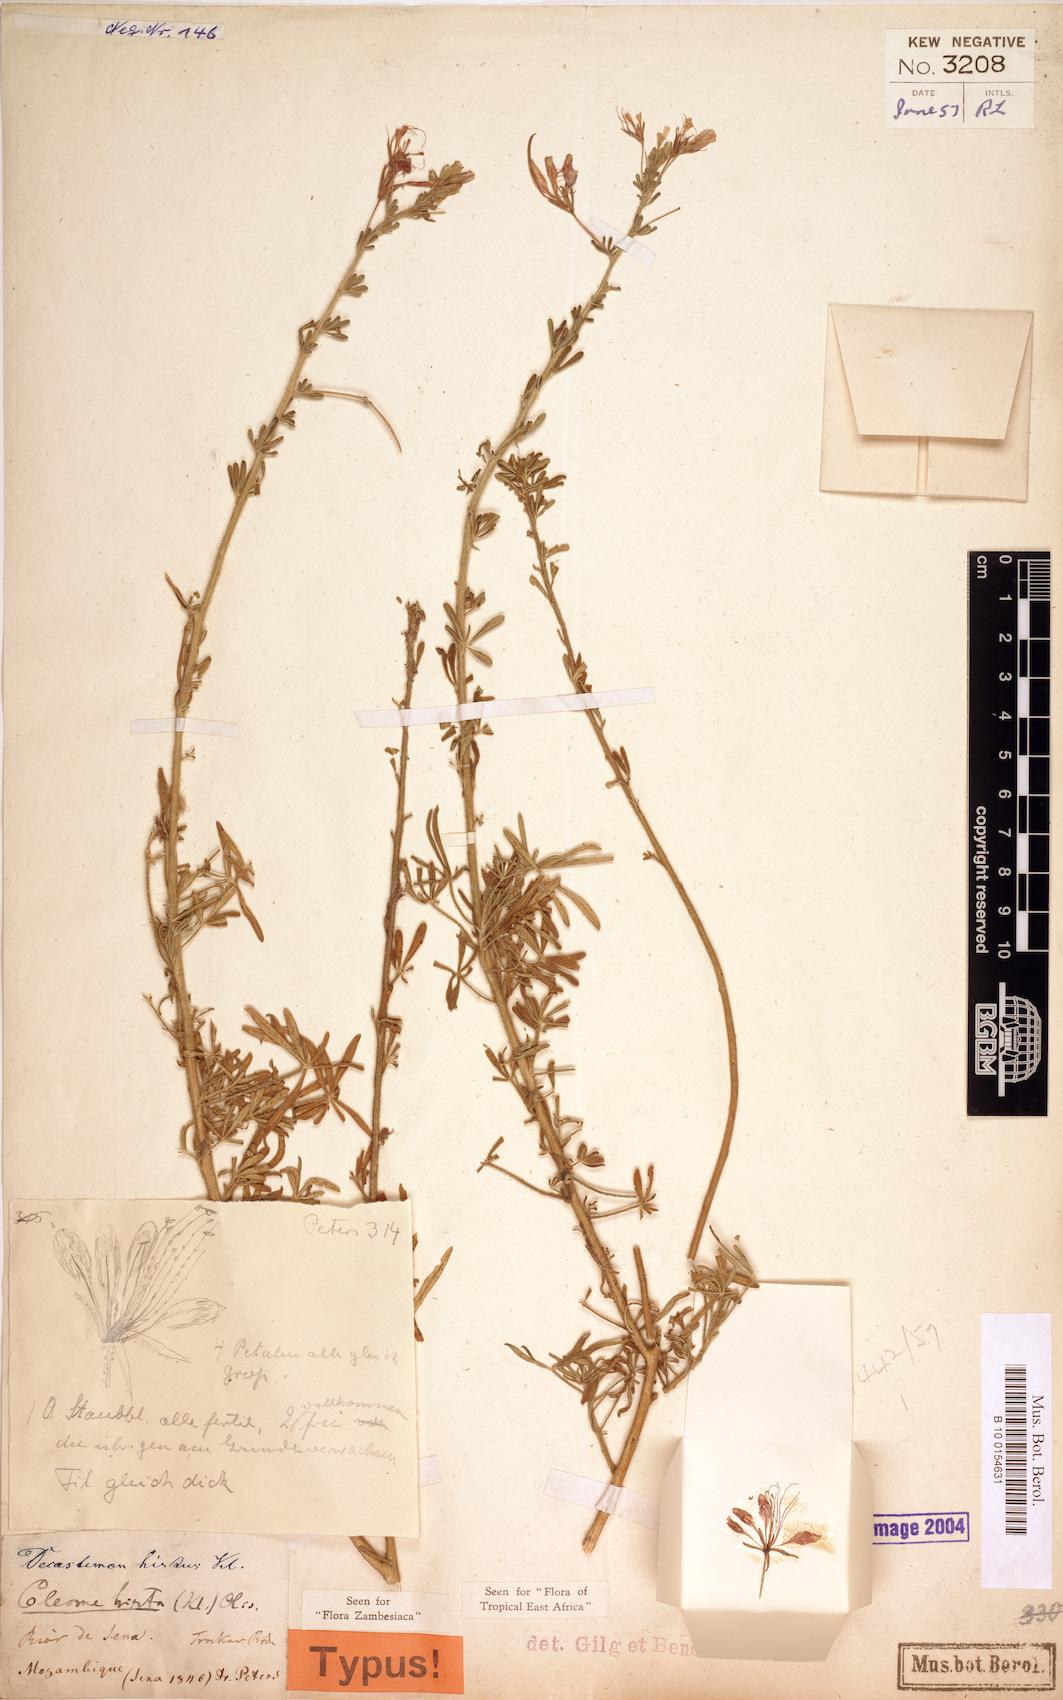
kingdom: Plantae
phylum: Tracheophyta
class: Magnoliopsida
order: Brassicales
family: Cleomaceae
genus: Sieruela
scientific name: Sieruela hirta
